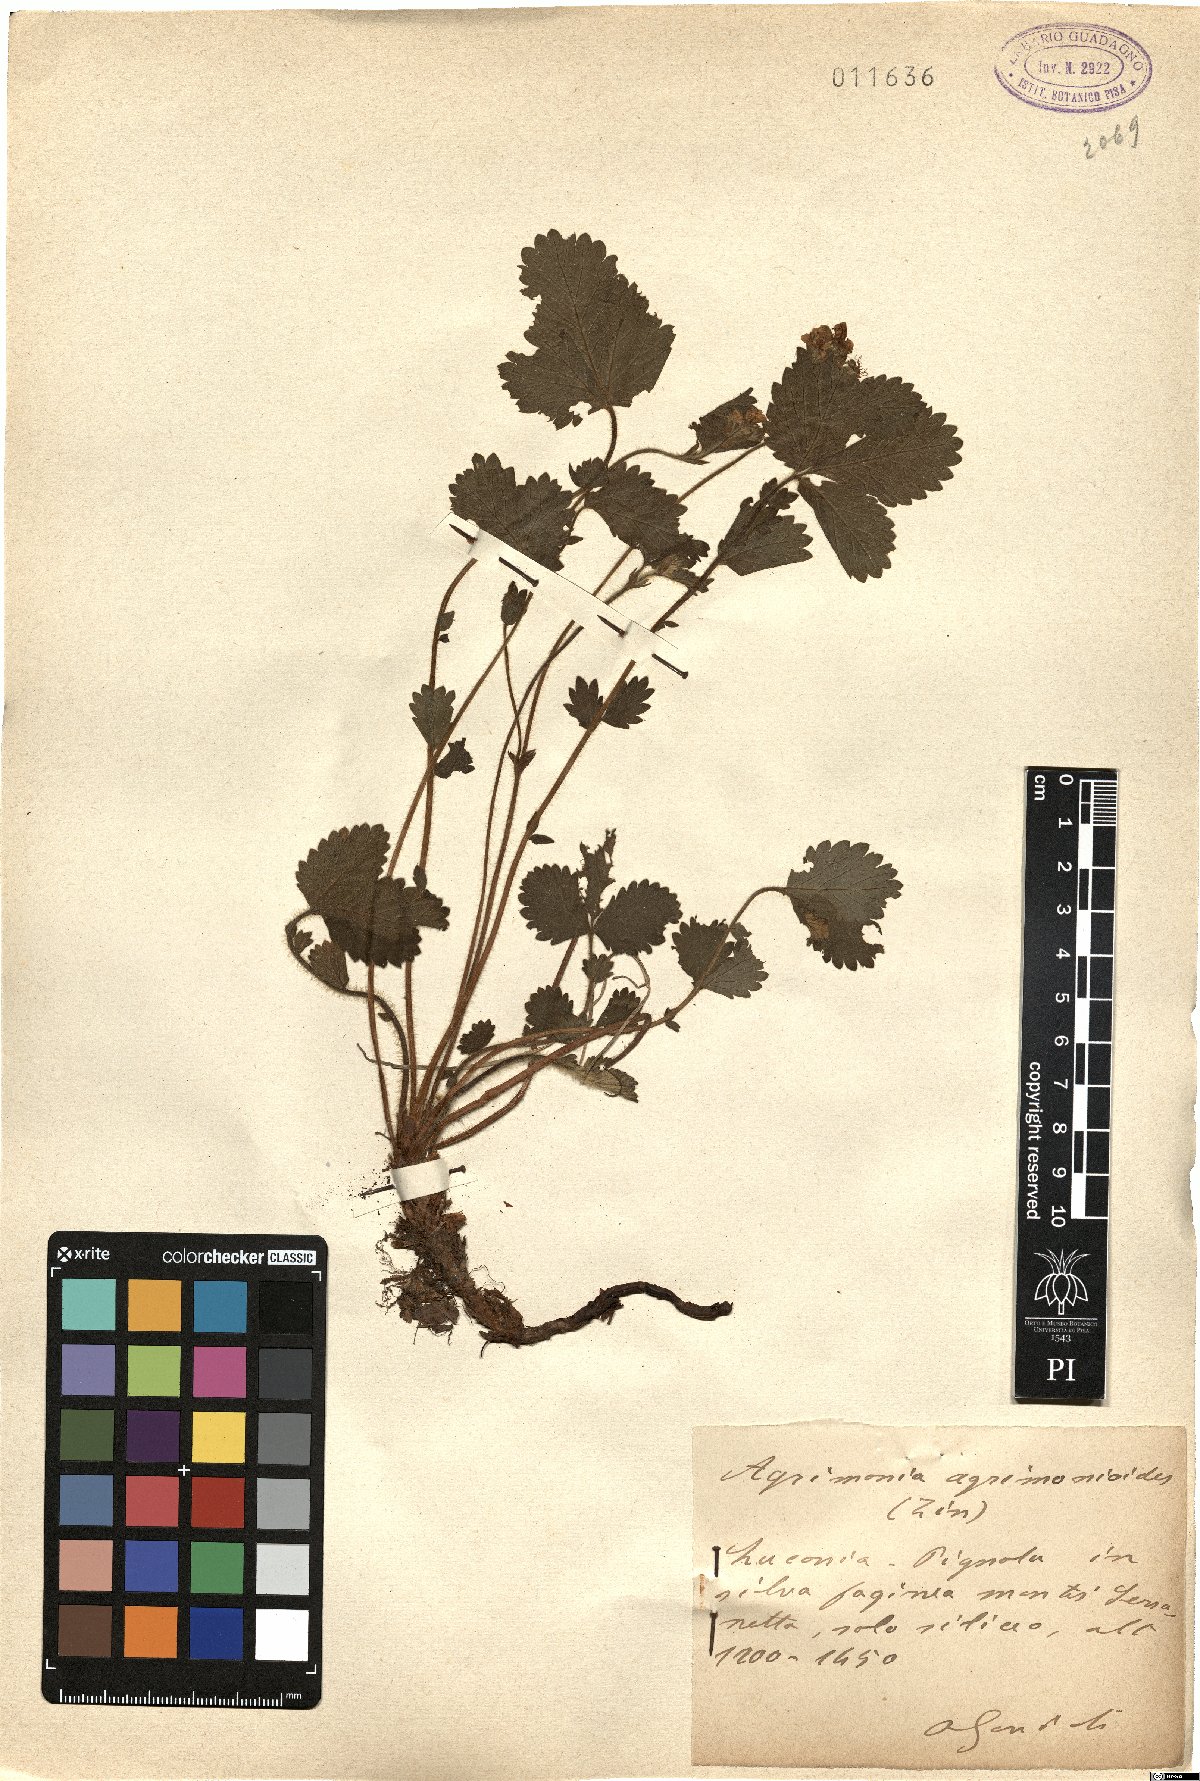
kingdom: Plantae
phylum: Tracheophyta
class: Magnoliopsida
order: Rosales
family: Rosaceae
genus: Aremonia
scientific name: Aremonia agrimonoides
